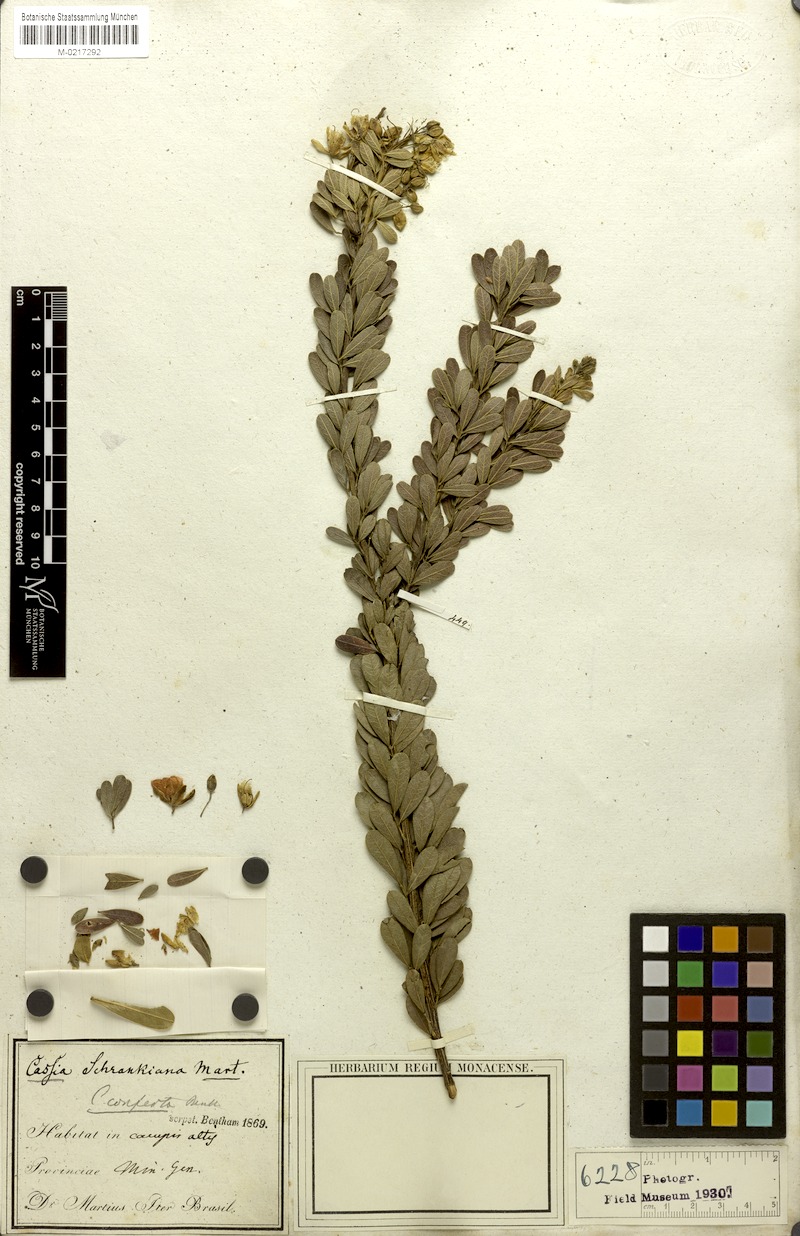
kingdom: Plantae
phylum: Tracheophyta
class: Magnoliopsida
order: Fabales
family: Fabaceae
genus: Chamaecrista
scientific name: Chamaecrista conferta
